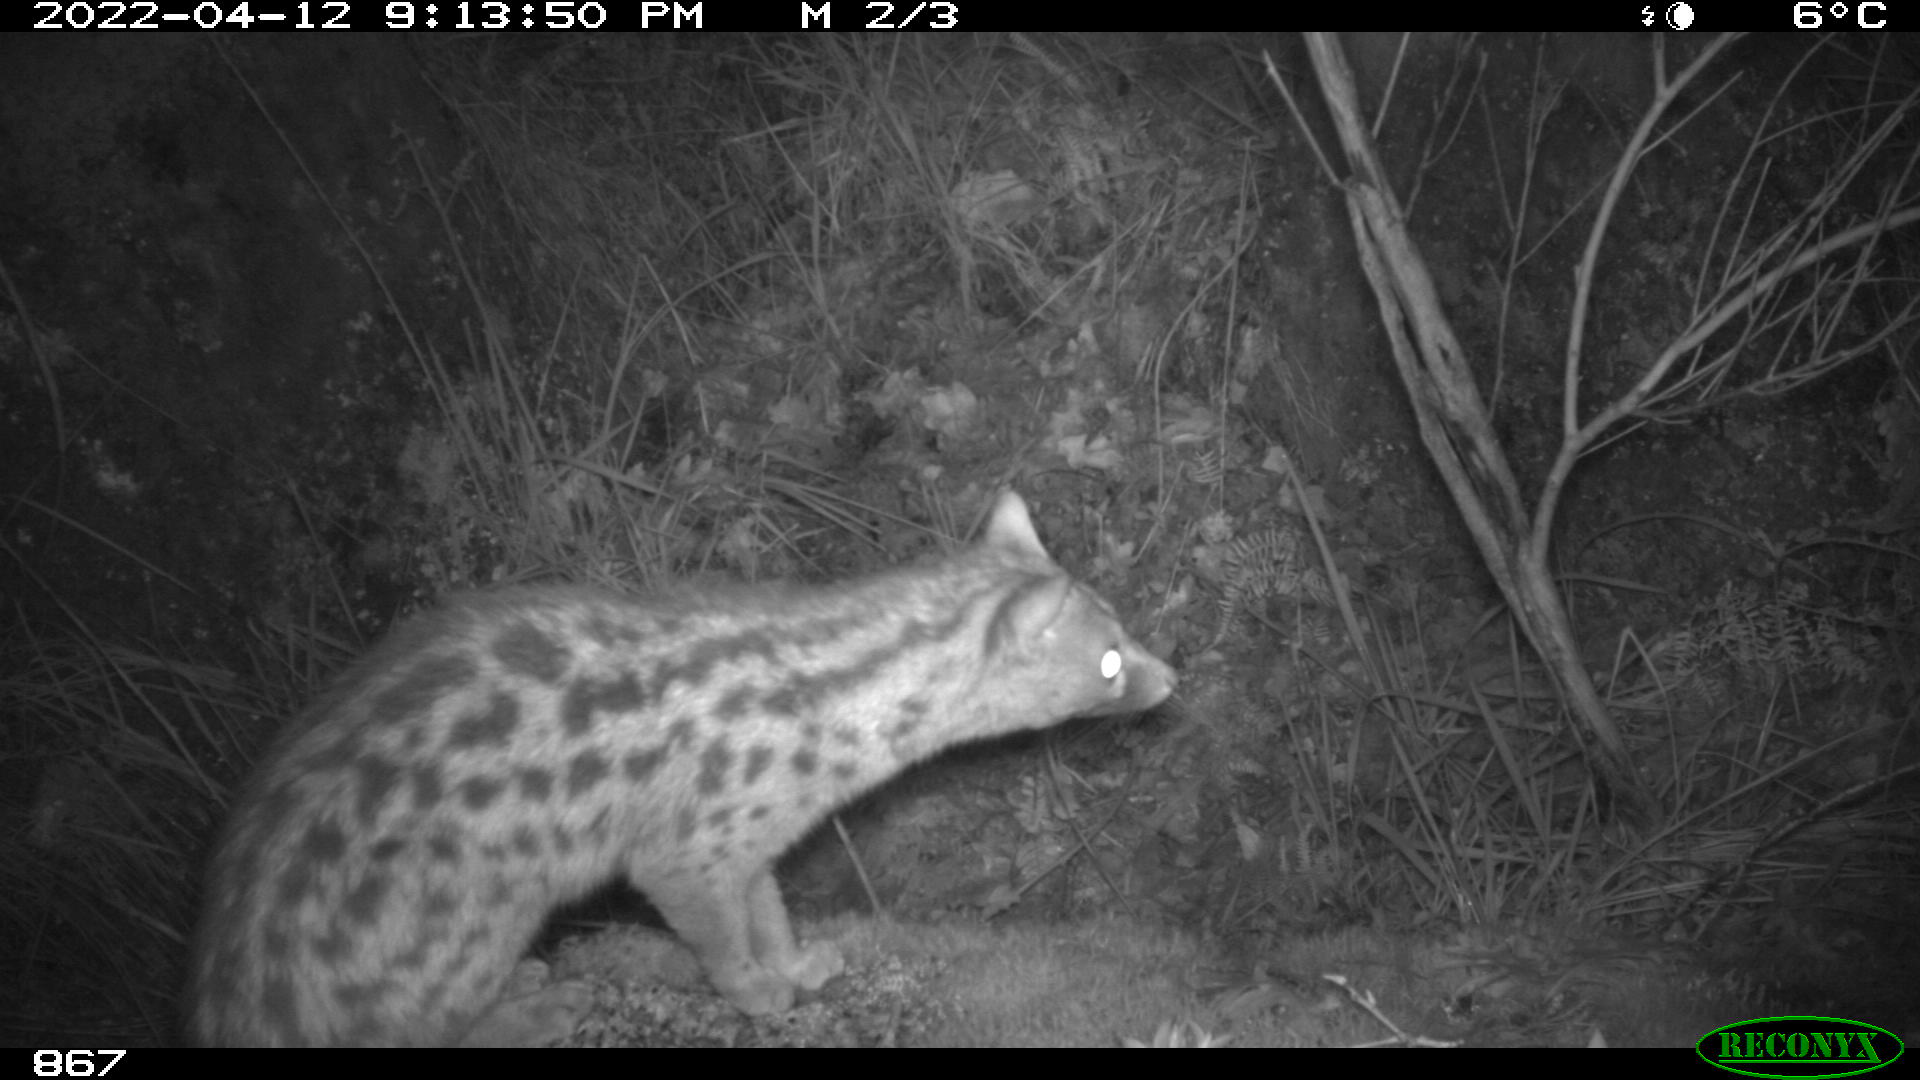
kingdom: Animalia
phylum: Chordata
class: Mammalia
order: Carnivora
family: Viverridae
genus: Genetta
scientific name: Genetta genetta
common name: Common genet
